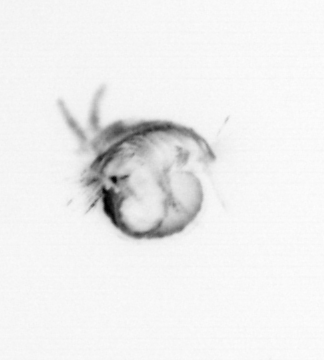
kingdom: Animalia
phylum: Annelida
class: Polychaeta
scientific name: Polychaeta
